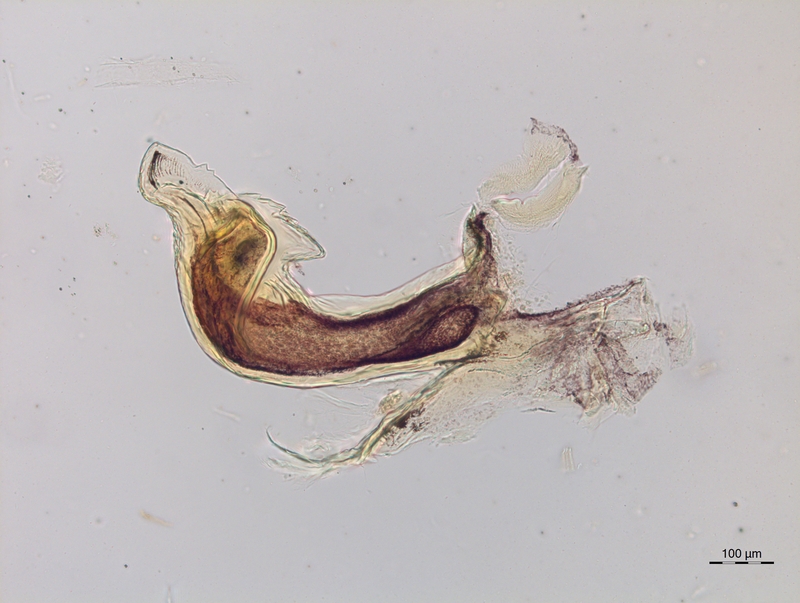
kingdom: Animalia
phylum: Arthropoda
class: Diplopoda
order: Chordeumatida
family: Craspedosomatidae
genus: Craspedosoma
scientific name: Craspedosoma rawlinsii
